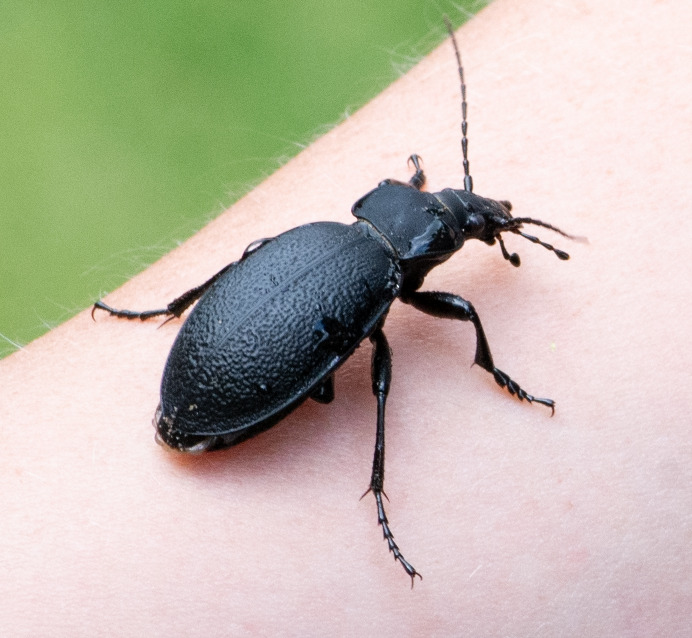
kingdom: Animalia
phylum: Arthropoda
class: Insecta
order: Coleoptera
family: Carabidae
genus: Carabus
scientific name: Carabus coriaceus
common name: Læderløber
